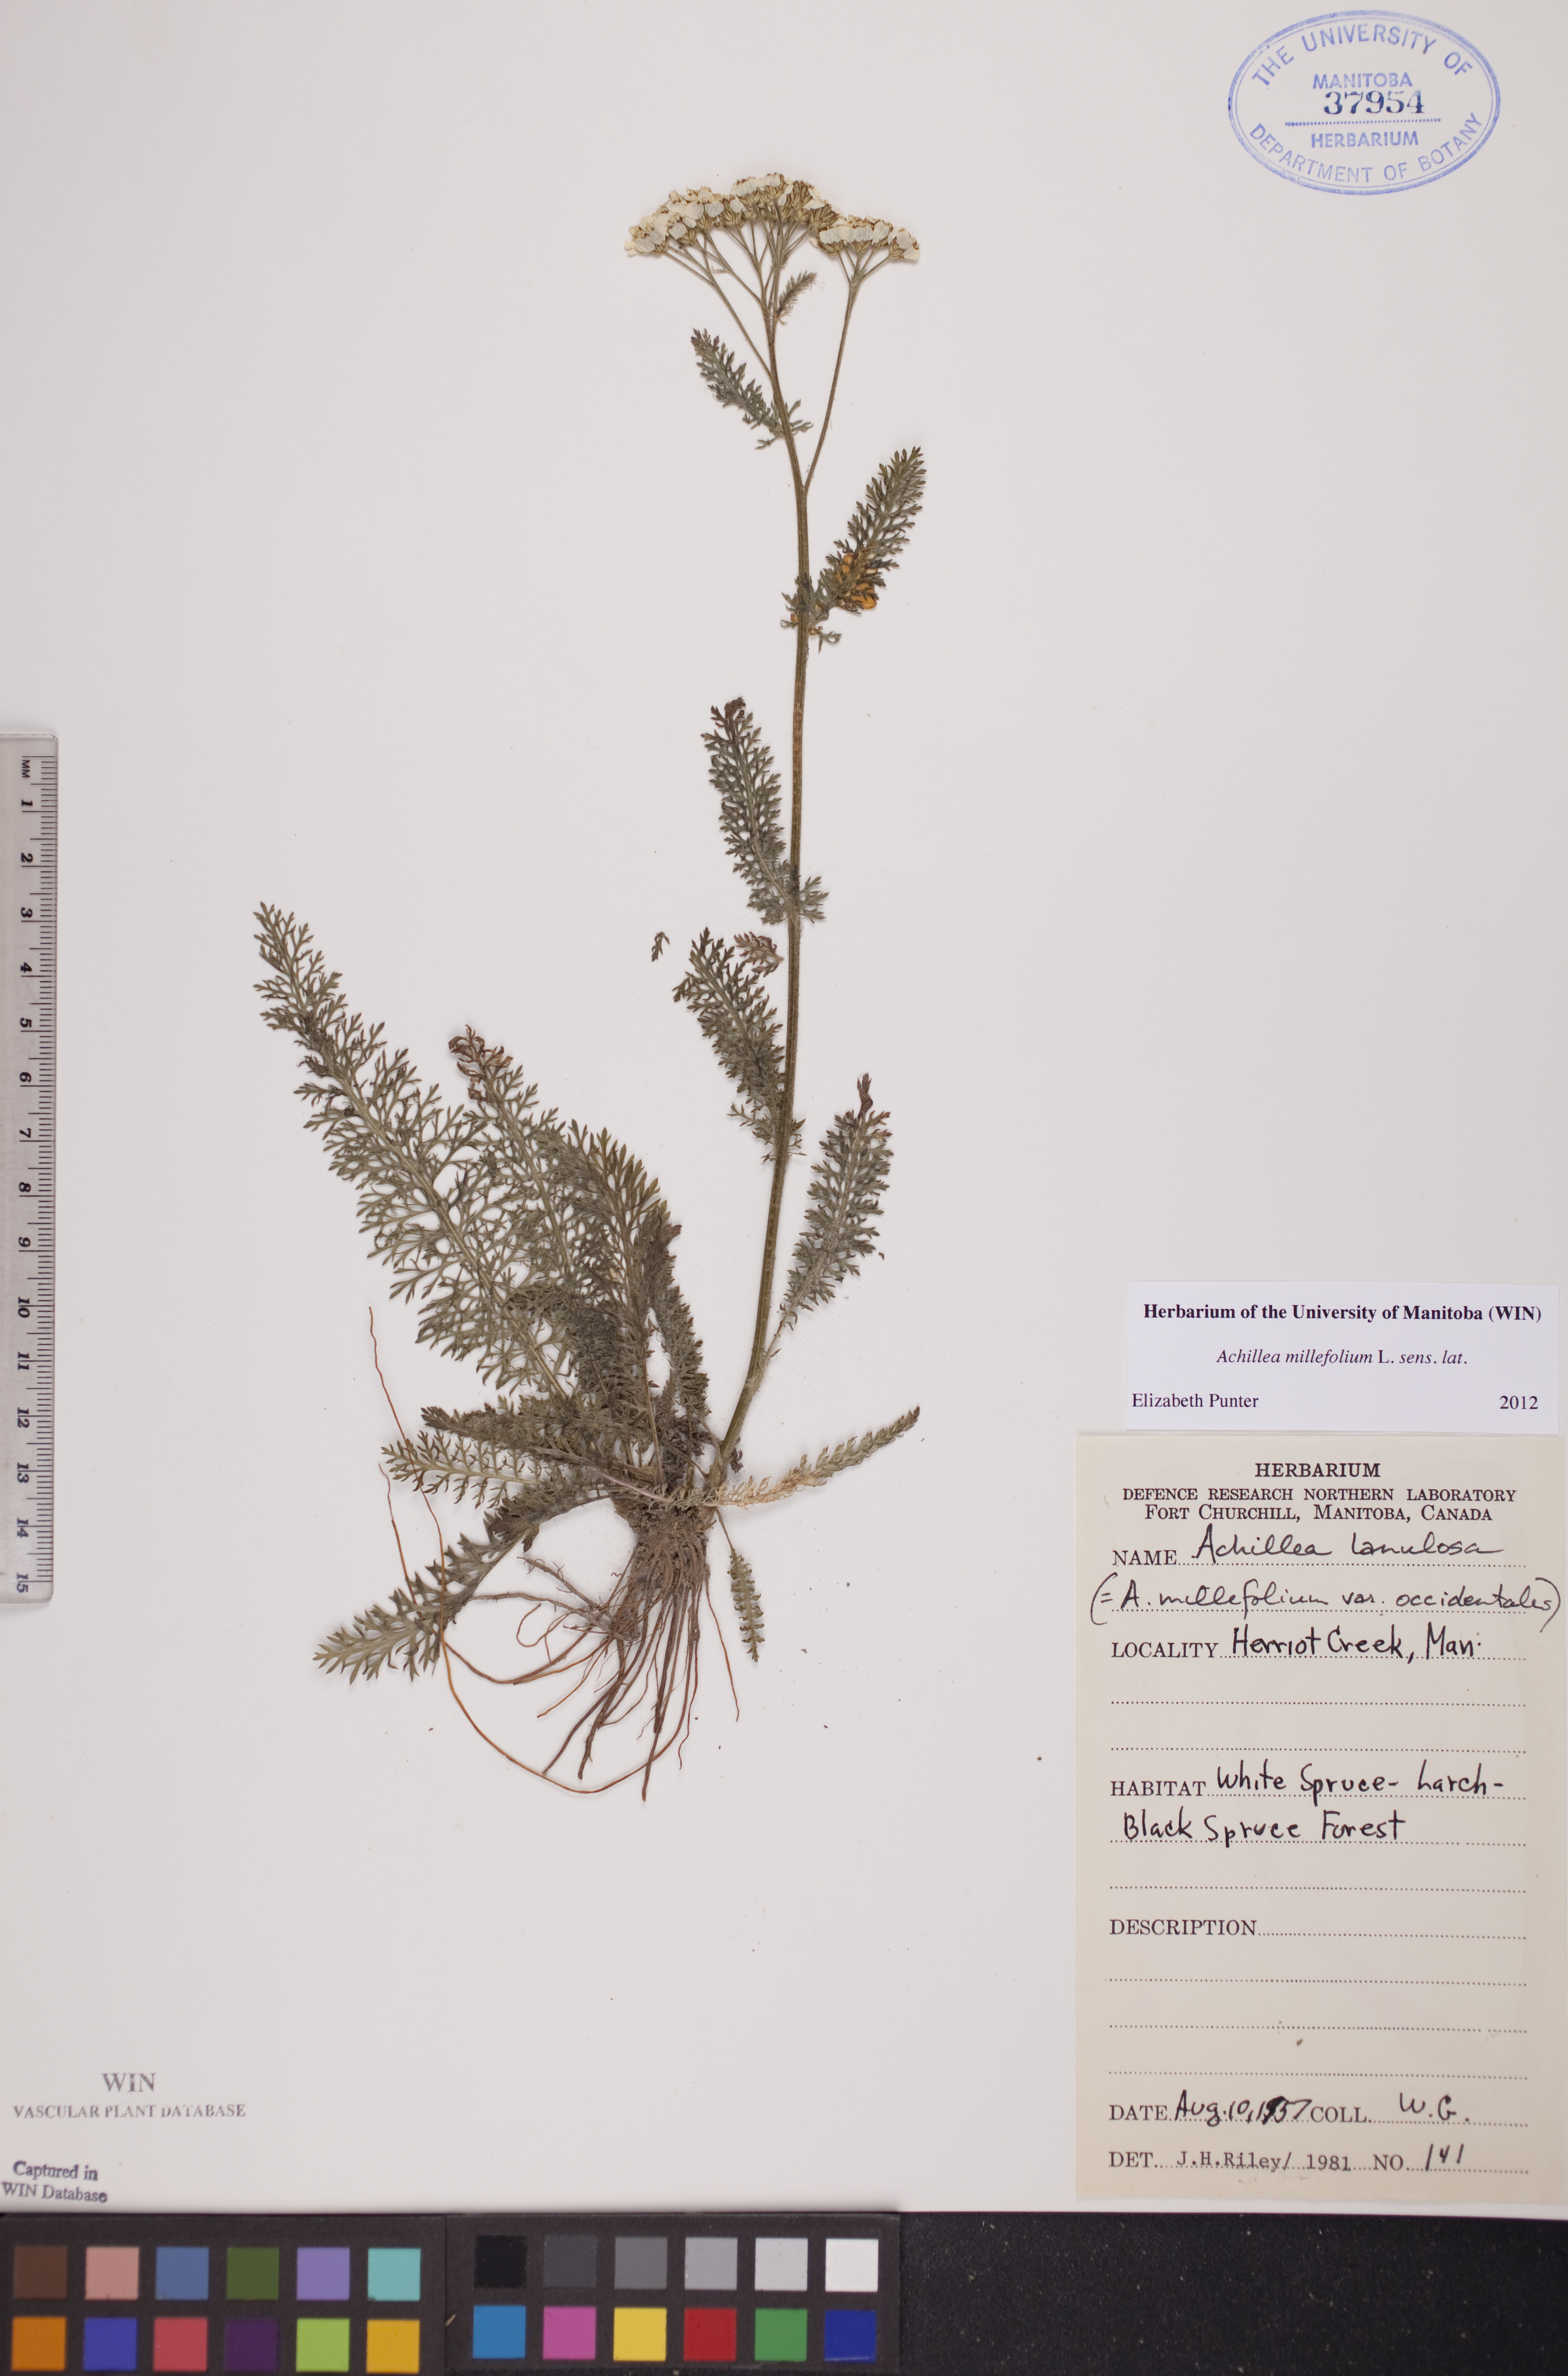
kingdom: Plantae
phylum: Tracheophyta
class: Magnoliopsida
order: Asterales
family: Asteraceae
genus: Achillea
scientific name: Achillea millefolium
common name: Yarrow
